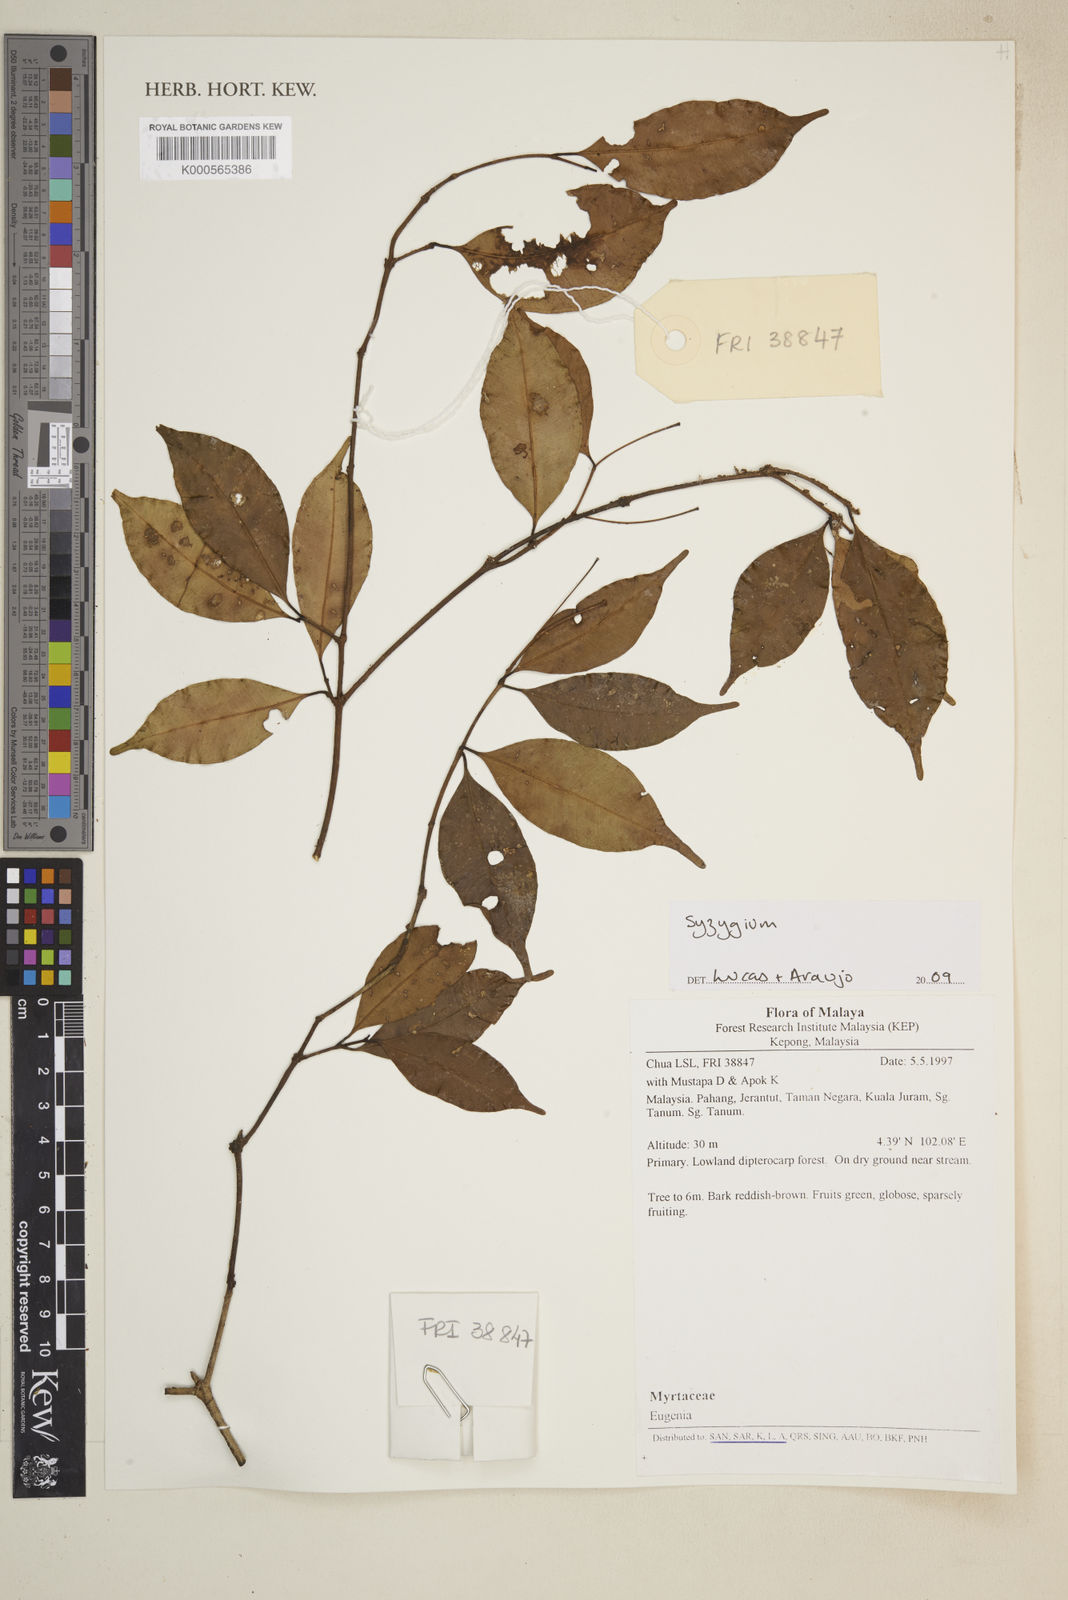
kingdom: Plantae
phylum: Tracheophyta
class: Magnoliopsida
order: Myrtales
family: Myrtaceae
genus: Syzygium
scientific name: Syzygium
